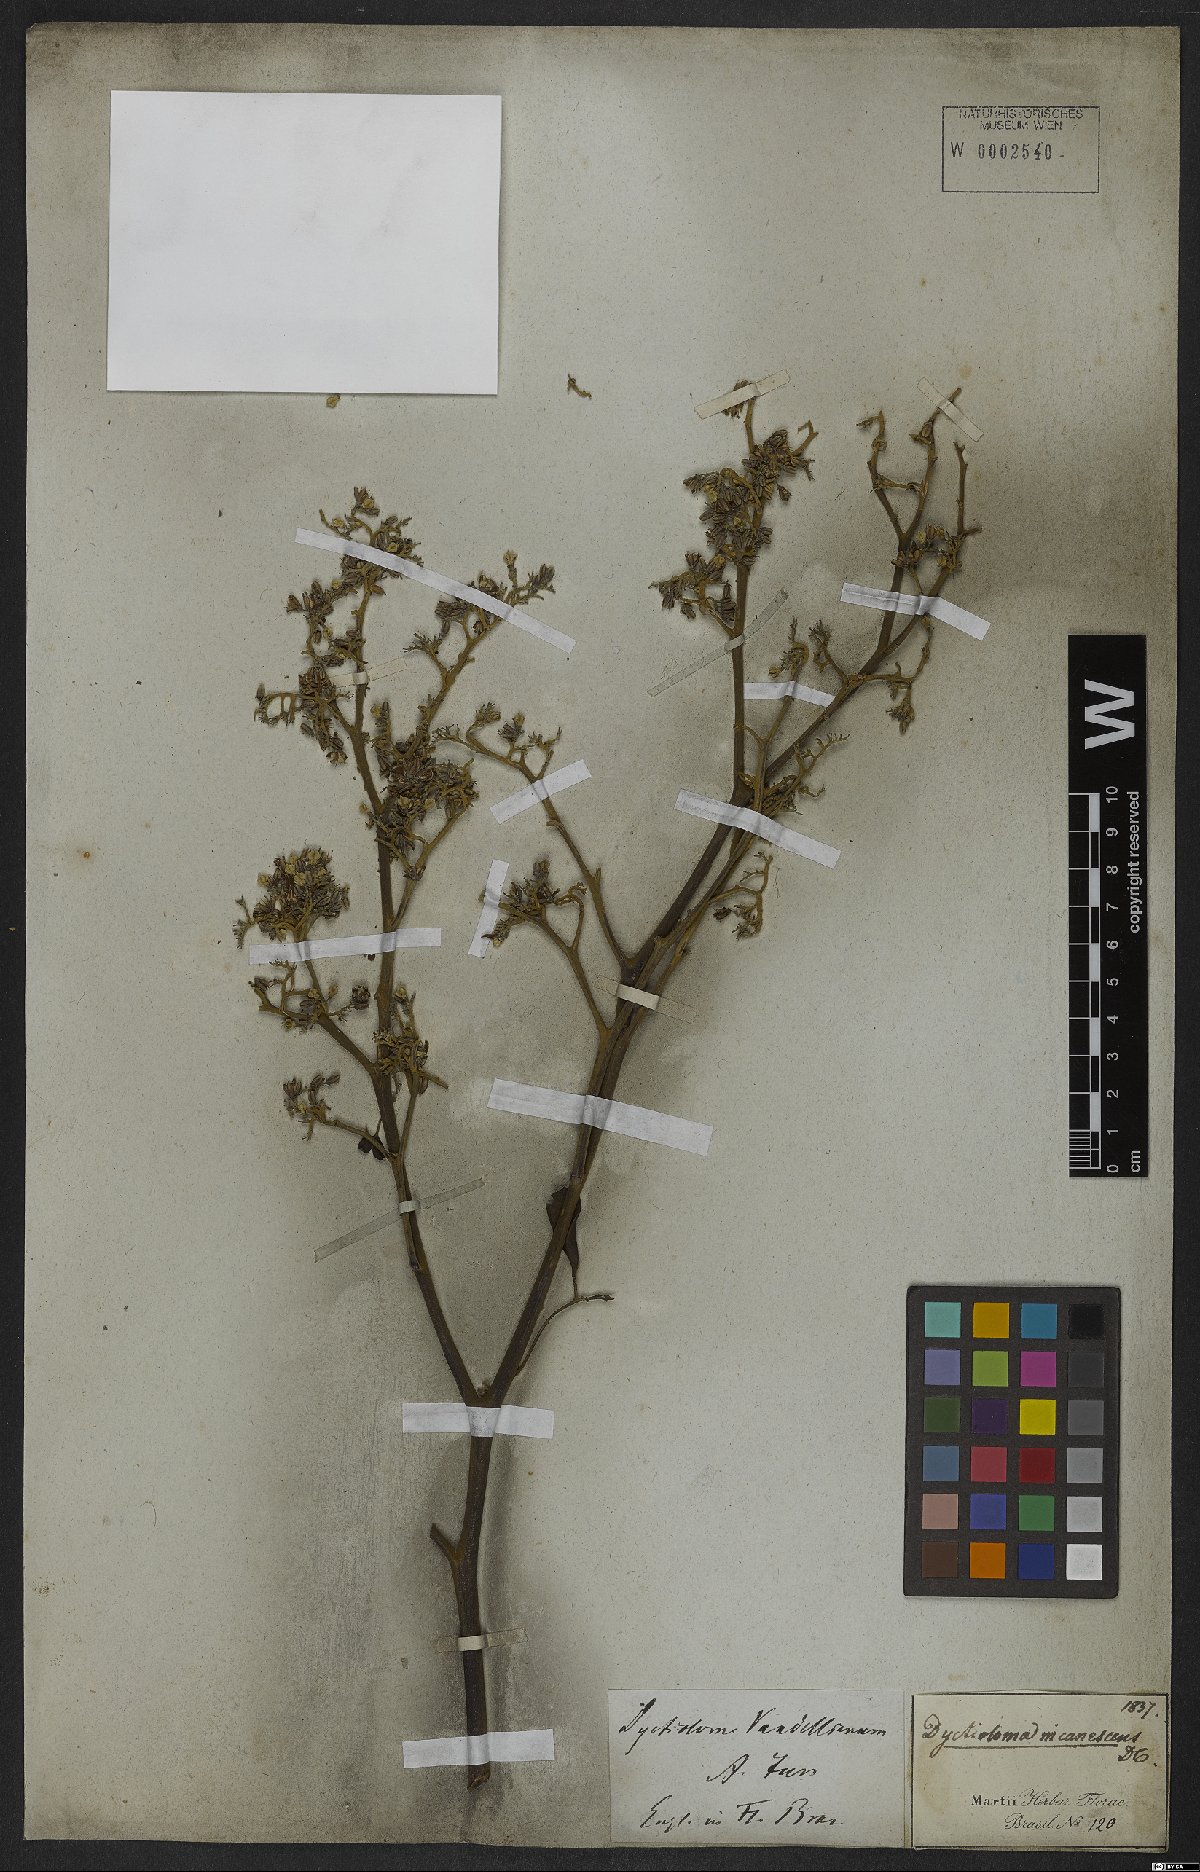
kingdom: Plantae
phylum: Tracheophyta
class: Magnoliopsida
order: Sapindales
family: Rutaceae
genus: Dictyoloma
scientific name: Dictyoloma vandellianum
